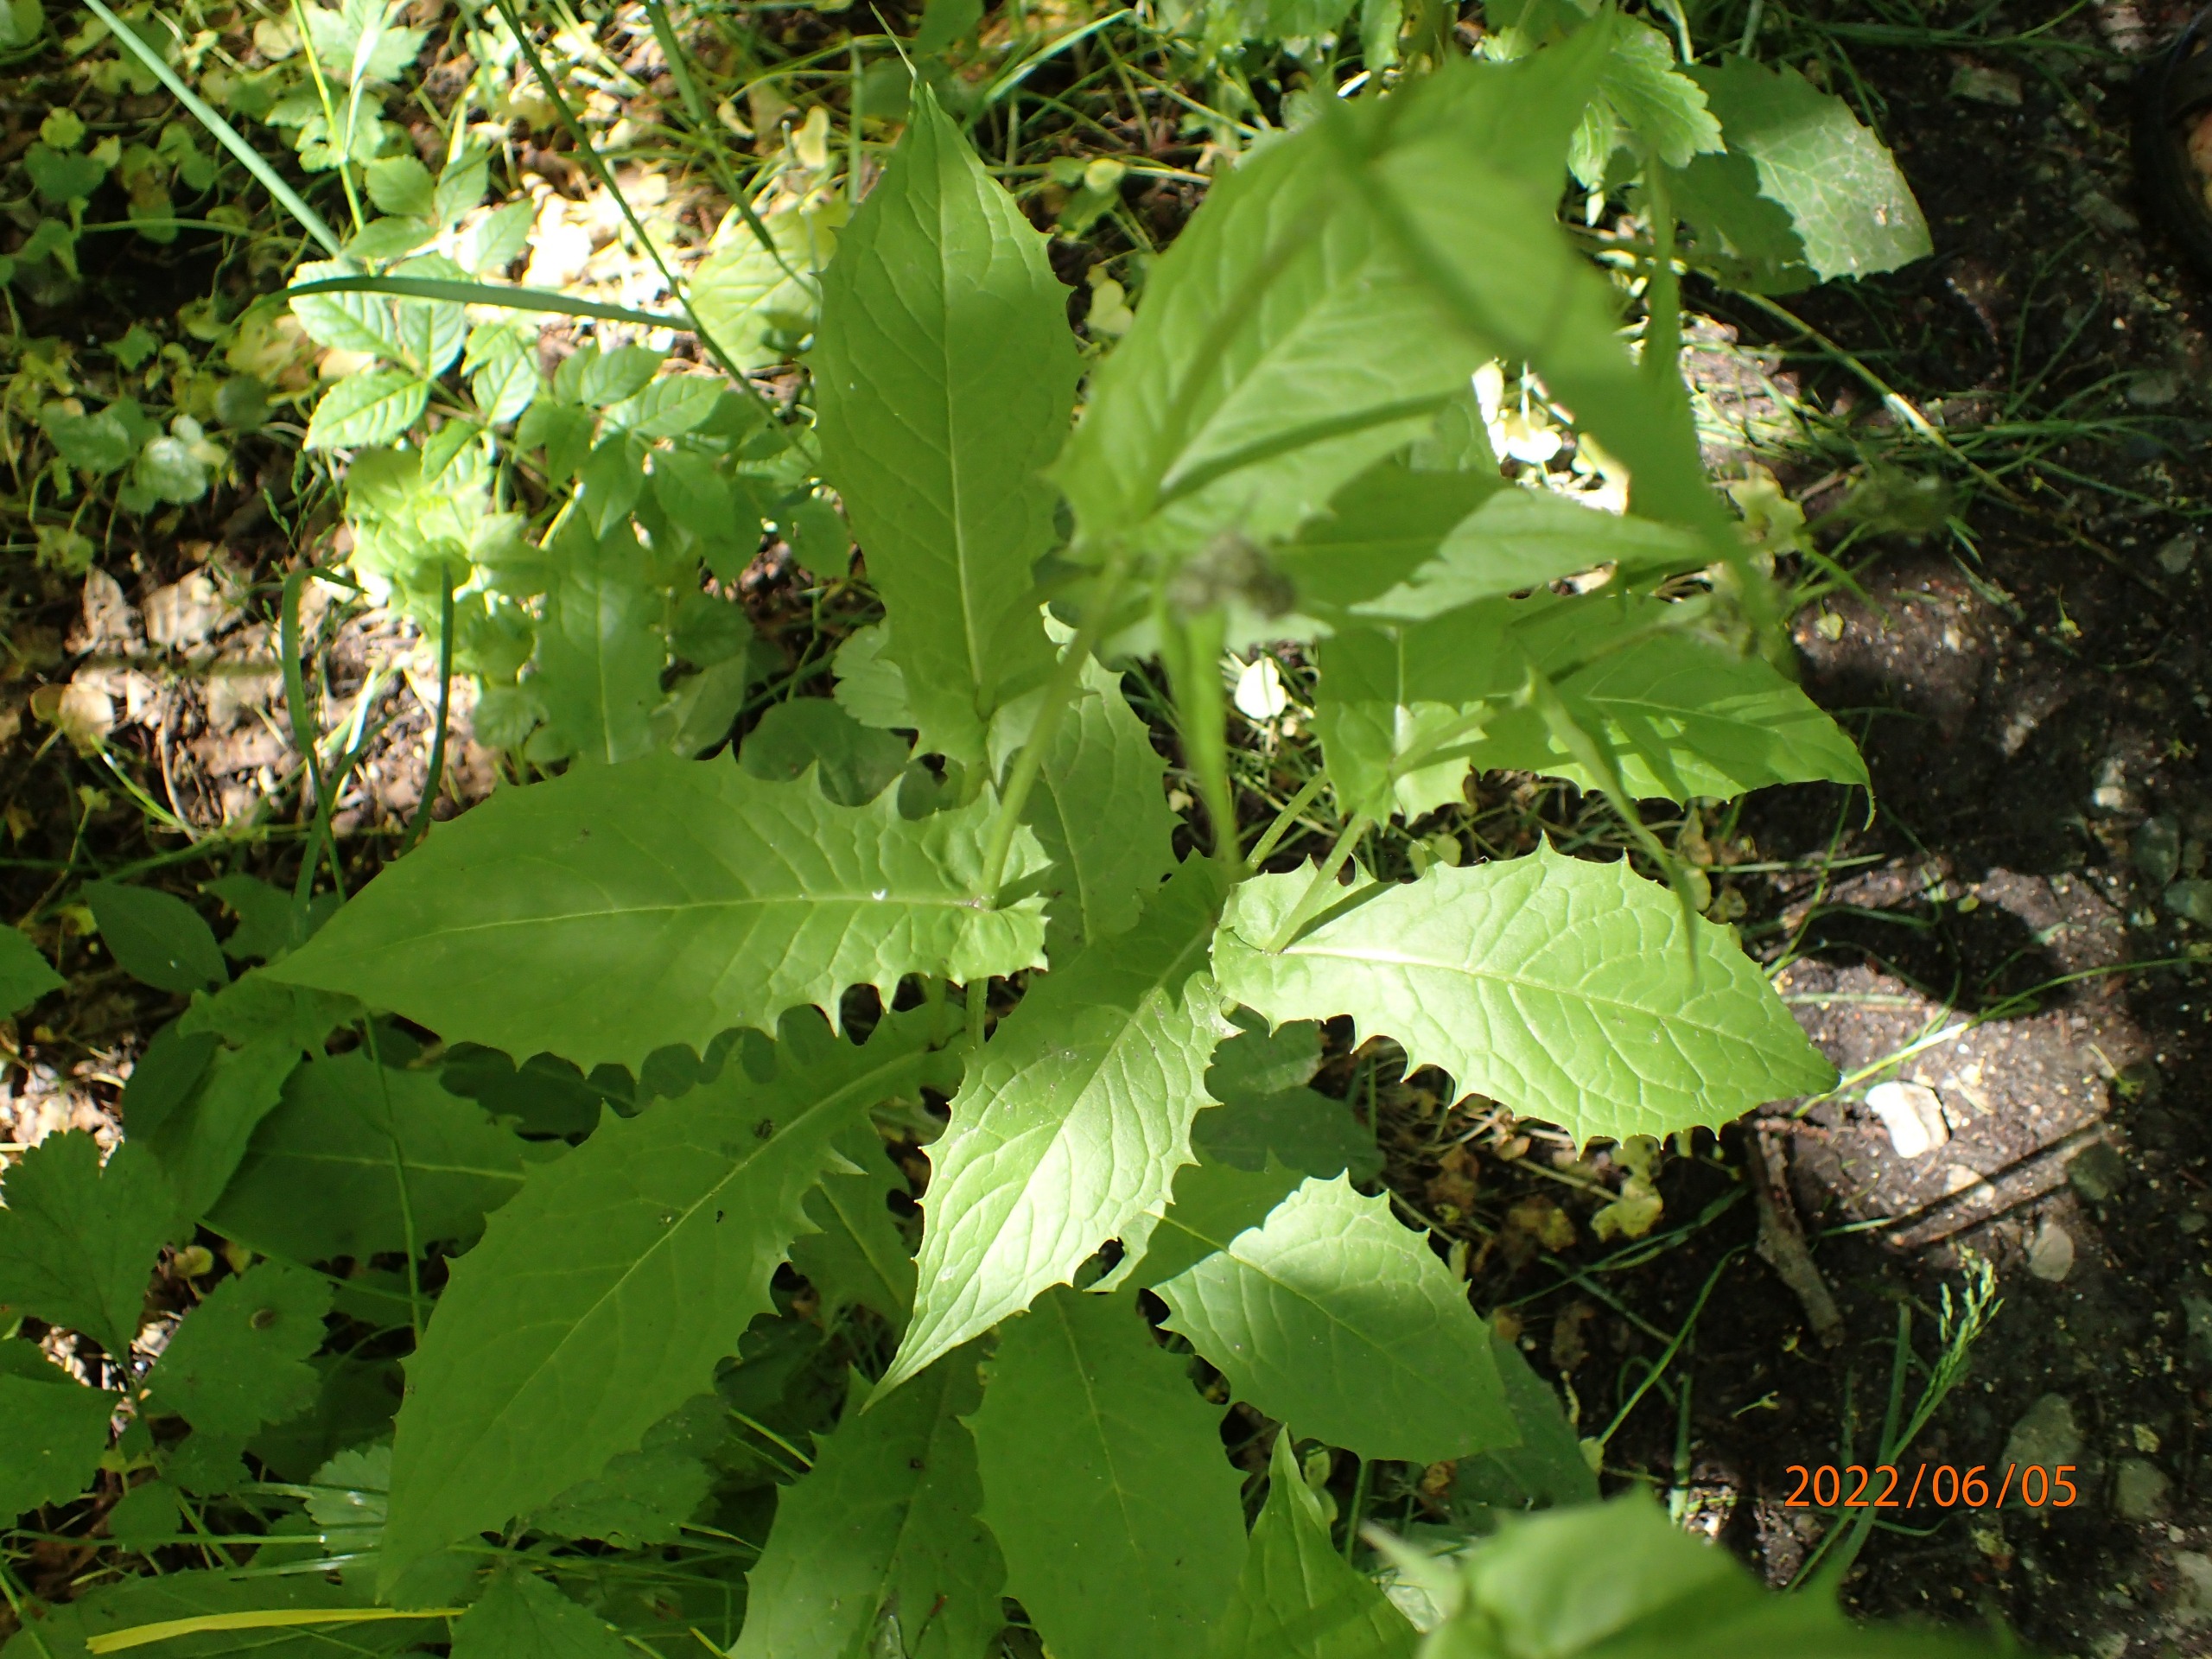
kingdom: Plantae
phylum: Tracheophyta
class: Magnoliopsida
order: Asterales
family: Asteraceae
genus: Crepis
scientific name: Crepis paludosa
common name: Kær-høgeskæg
